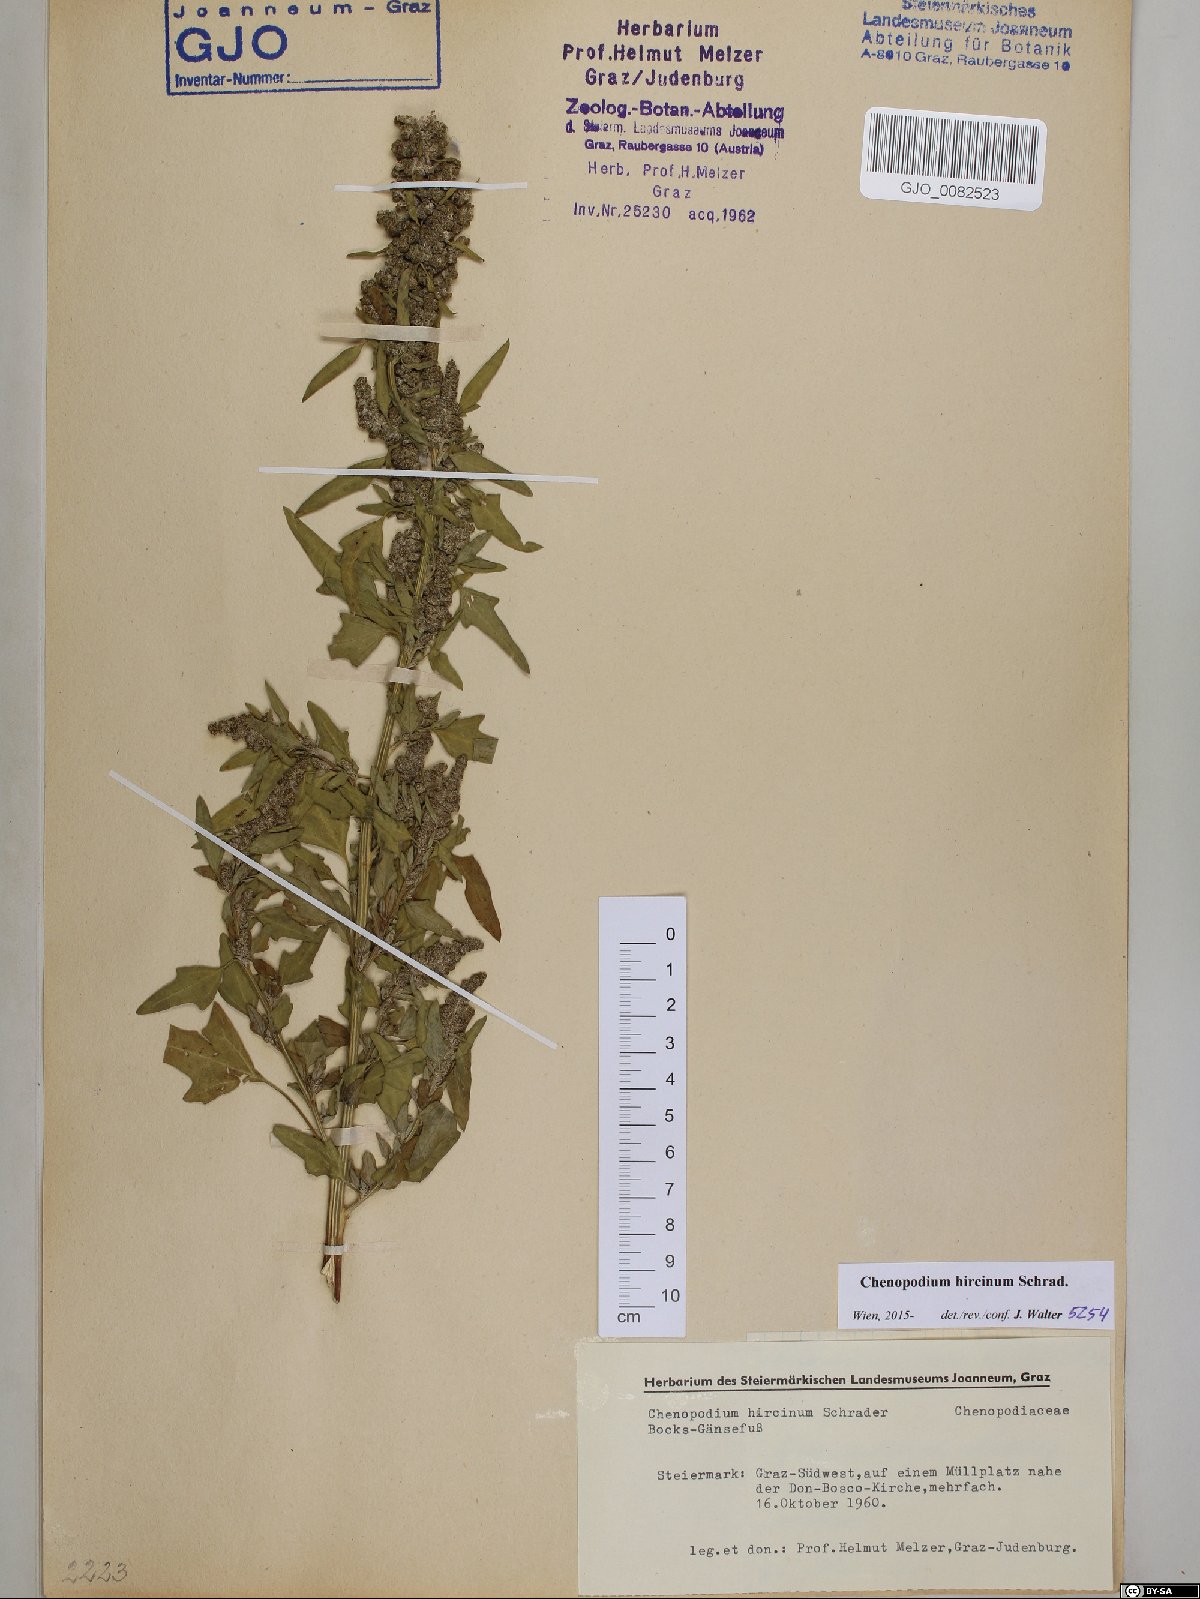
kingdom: Plantae
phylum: Tracheophyta
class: Magnoliopsida
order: Caryophyllales
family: Amaranthaceae
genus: Chenopodium
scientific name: Chenopodium hircinum
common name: Foetid goosefoot
